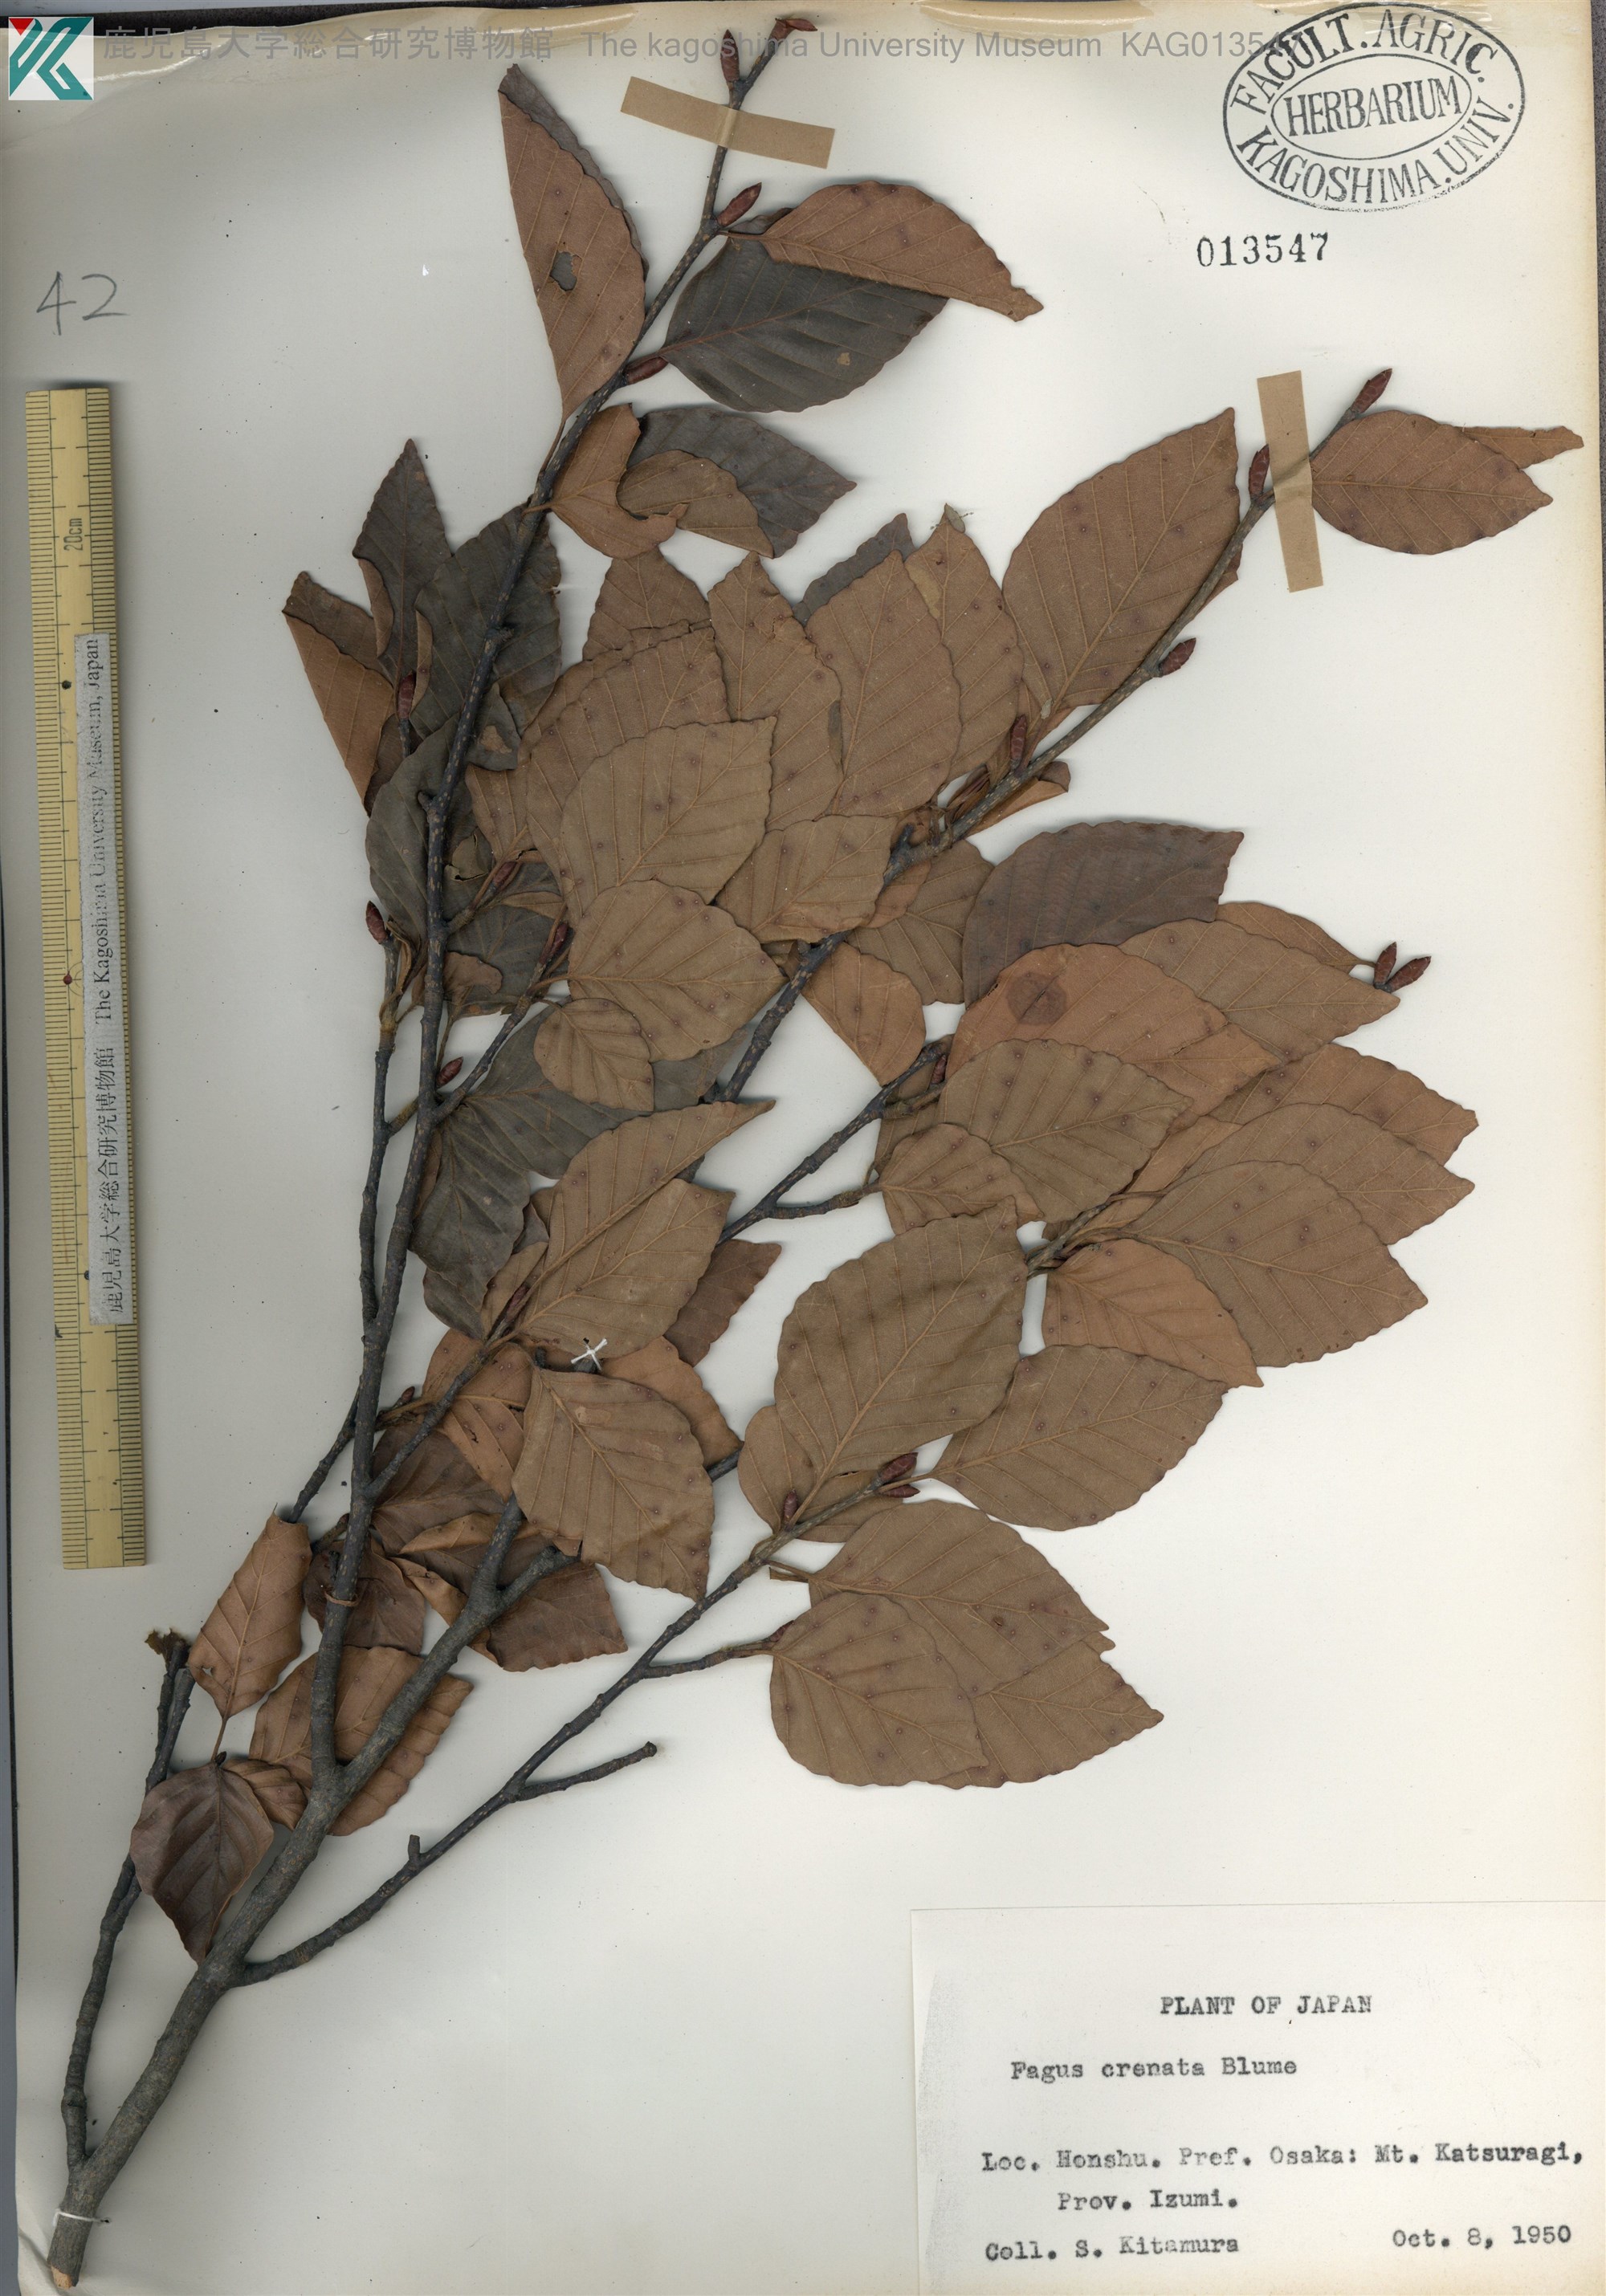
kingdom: Plantae
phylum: Tracheophyta
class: Magnoliopsida
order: Fagales
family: Fagaceae
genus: Fagus
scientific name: Fagus crenata
